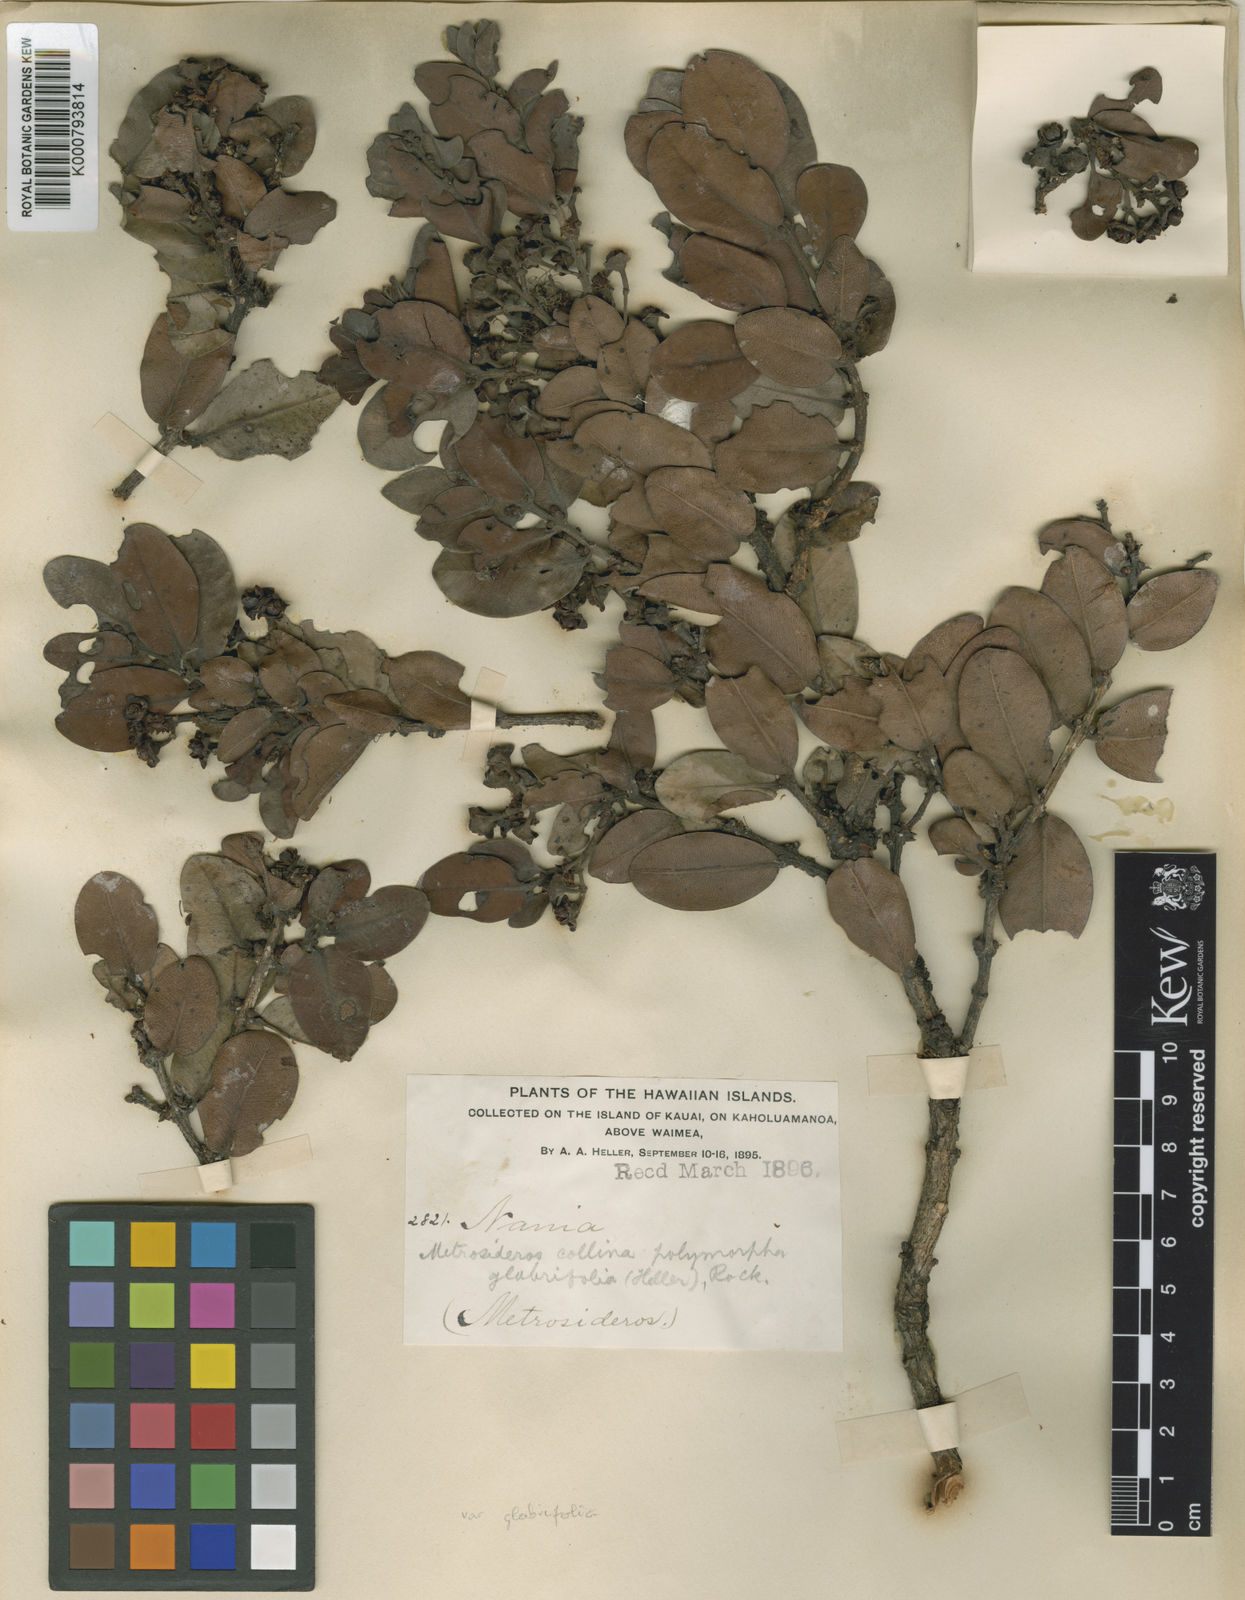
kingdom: Plantae
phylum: Tracheophyta
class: Magnoliopsida
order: Myrtales
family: Myrtaceae
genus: Metrosideros
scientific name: Metrosideros polymorpha
